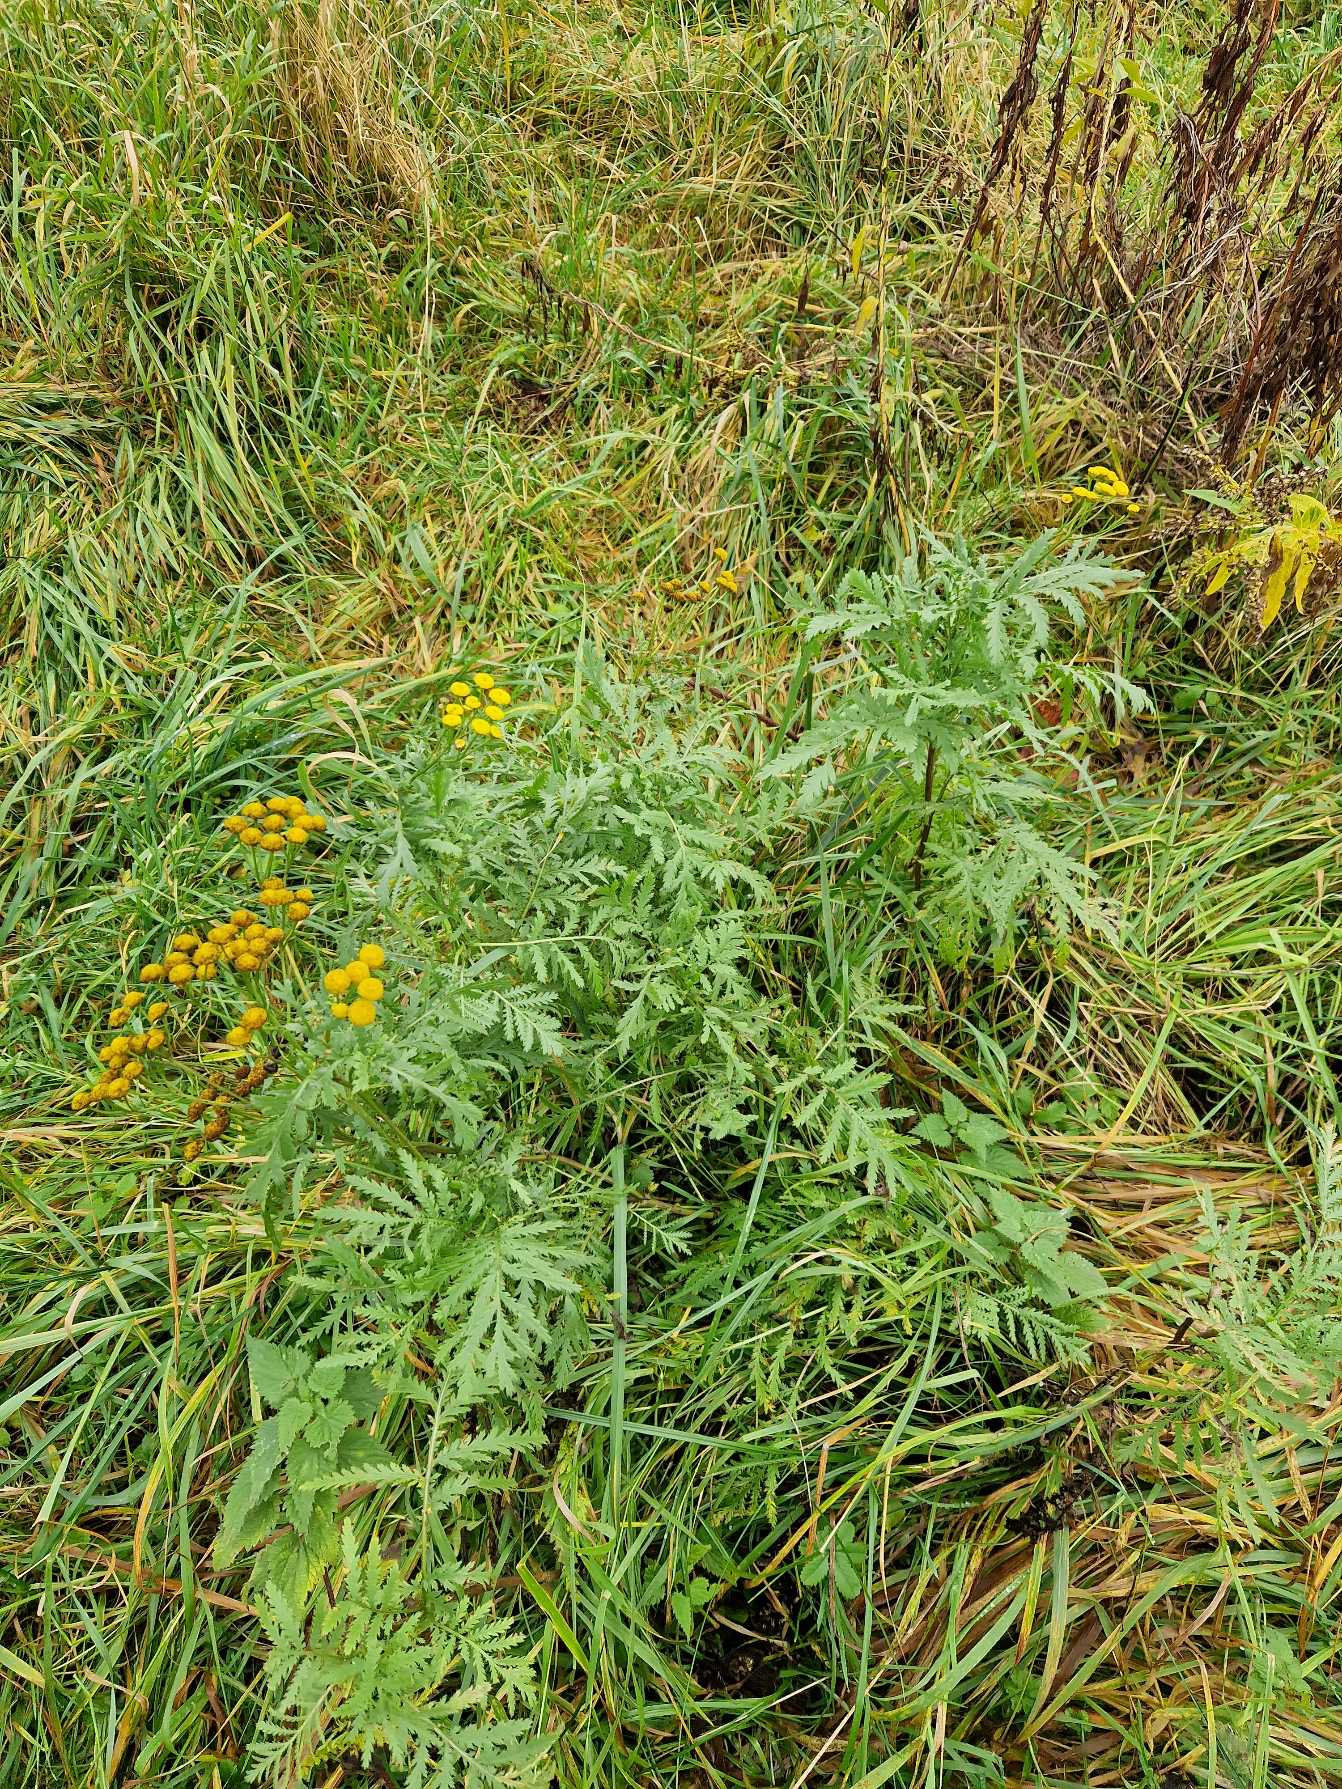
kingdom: Plantae
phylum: Tracheophyta
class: Magnoliopsida
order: Asterales
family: Asteraceae
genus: Tanacetum
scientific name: Tanacetum vulgare
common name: Rejnfan
